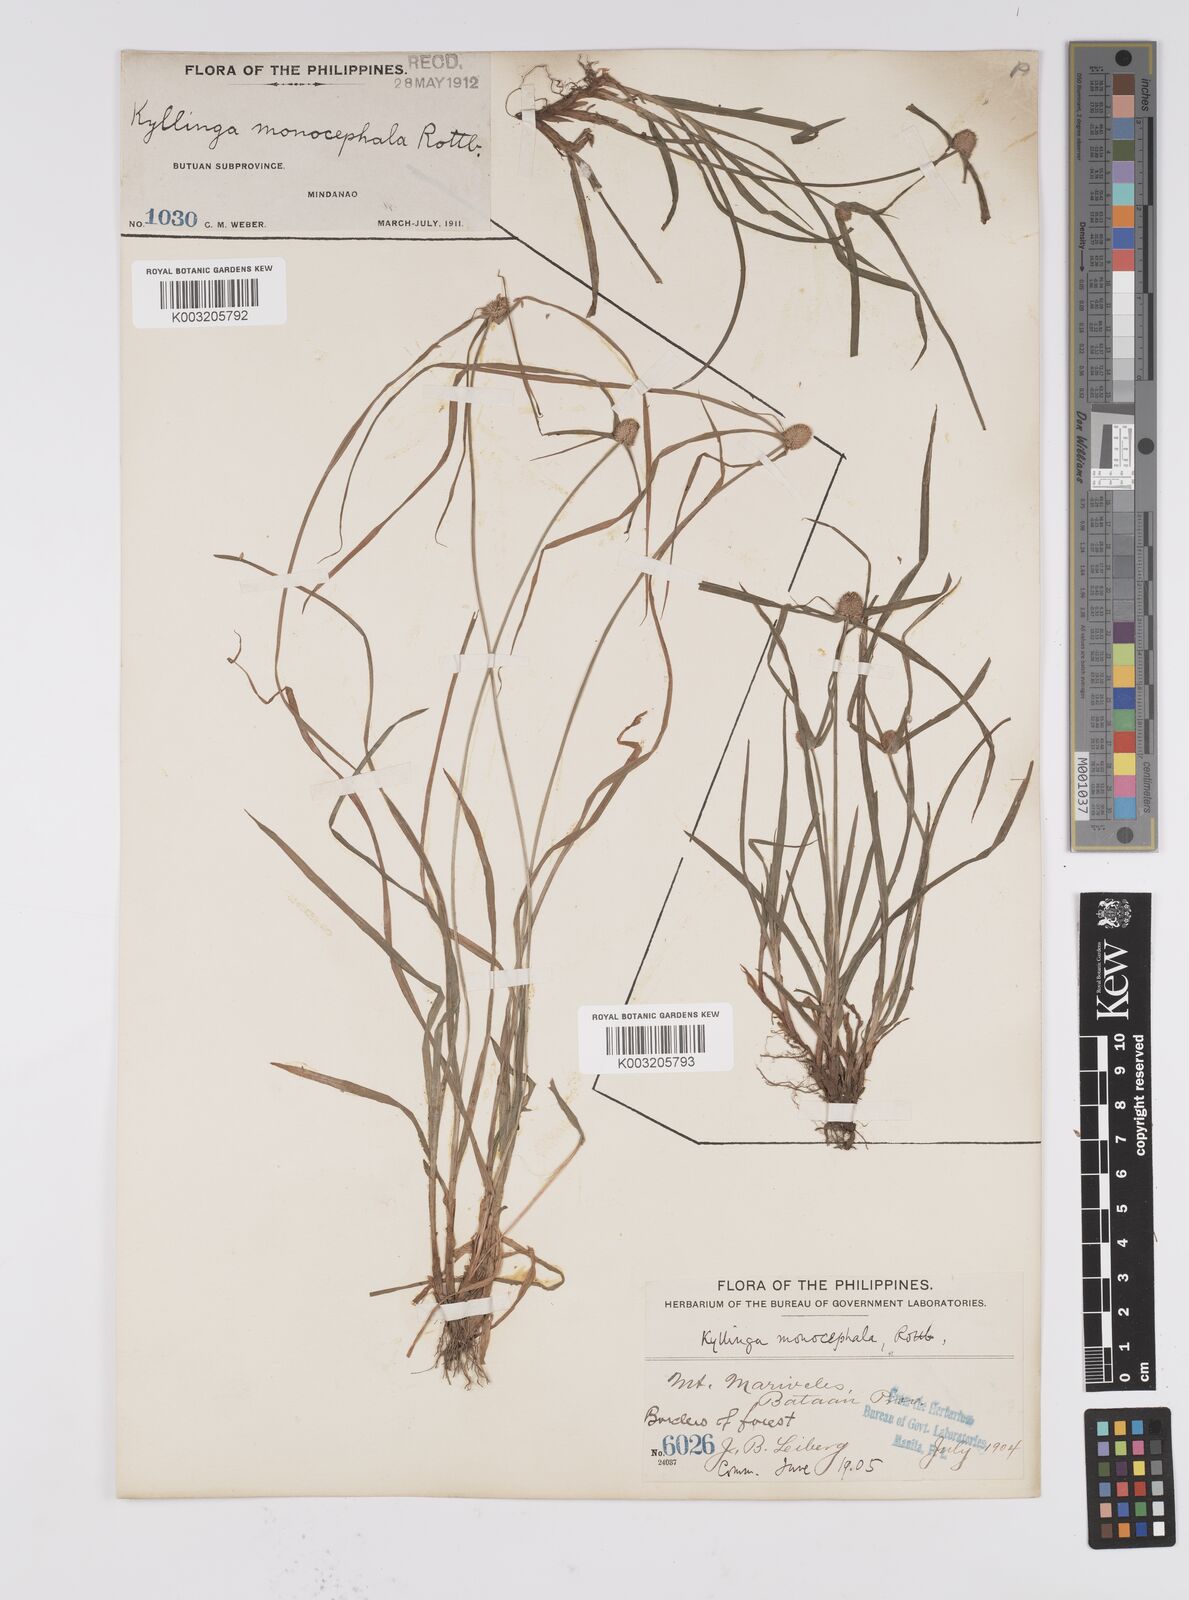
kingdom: Plantae
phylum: Tracheophyta
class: Liliopsida
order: Poales
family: Cyperaceae
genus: Cyperus
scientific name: Cyperus nemoralis
